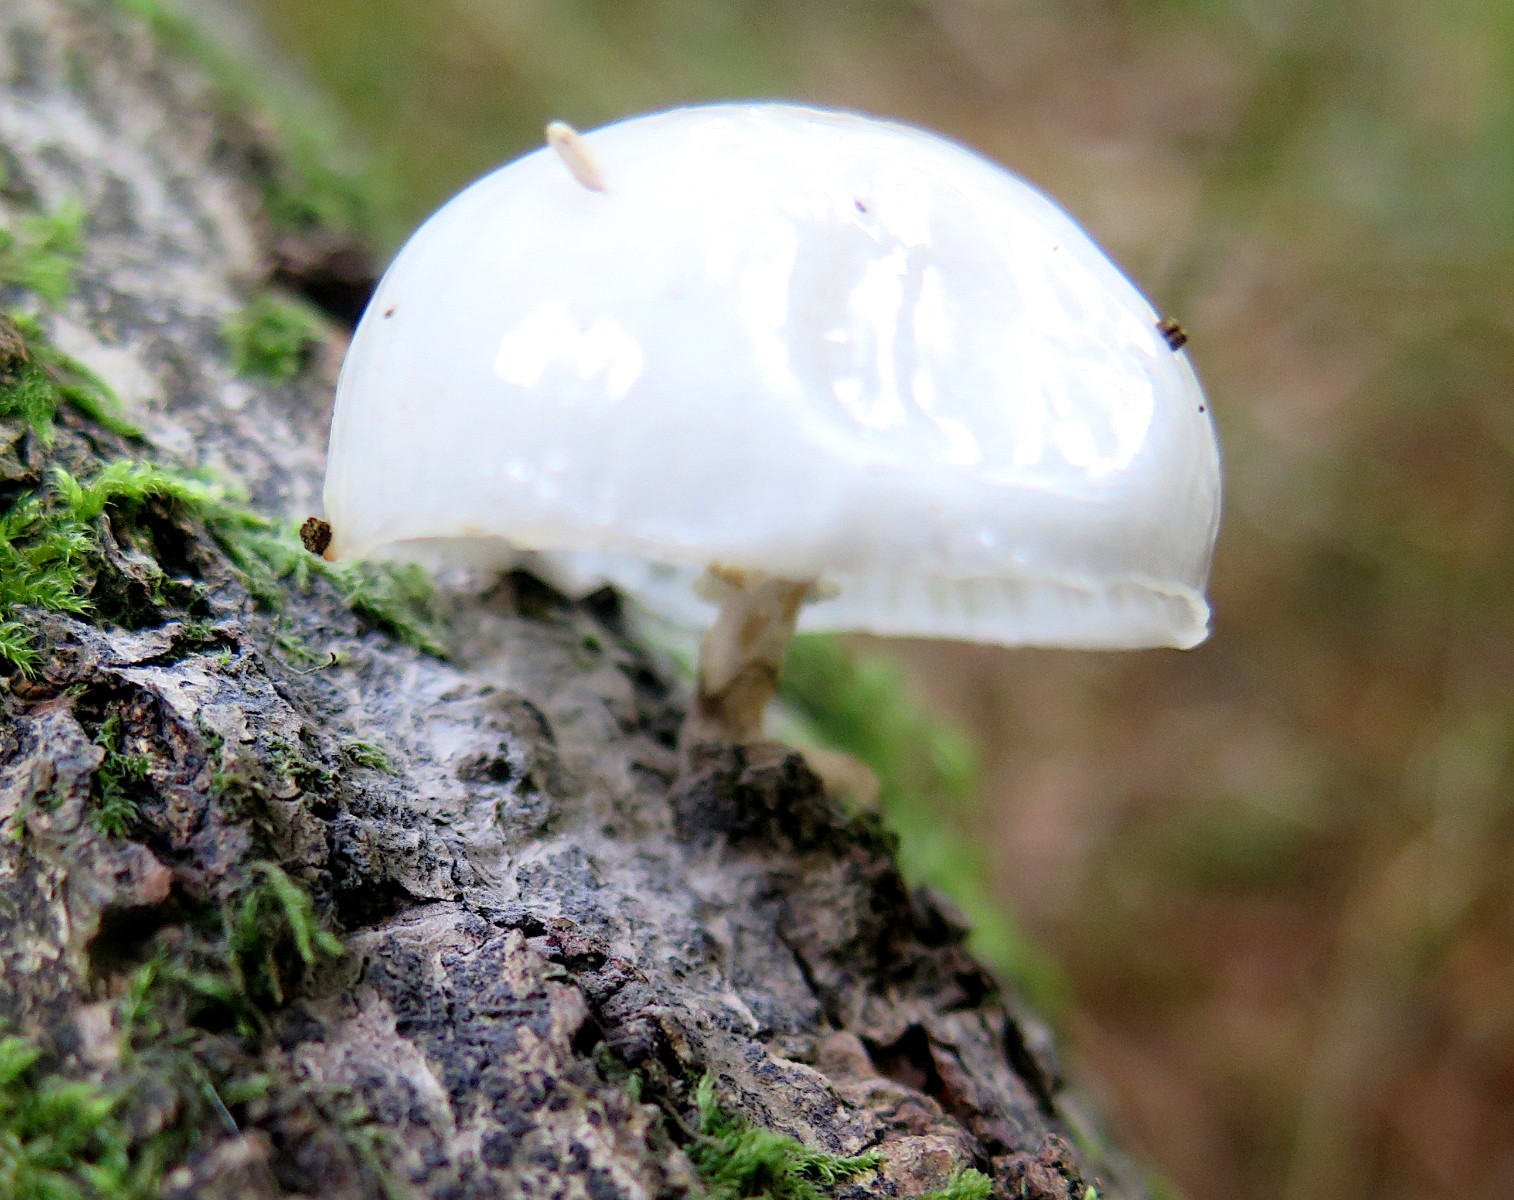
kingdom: Fungi
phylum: Basidiomycota
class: Agaricomycetes
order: Agaricales
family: Physalacriaceae
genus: Mucidula
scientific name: Mucidula mucida
